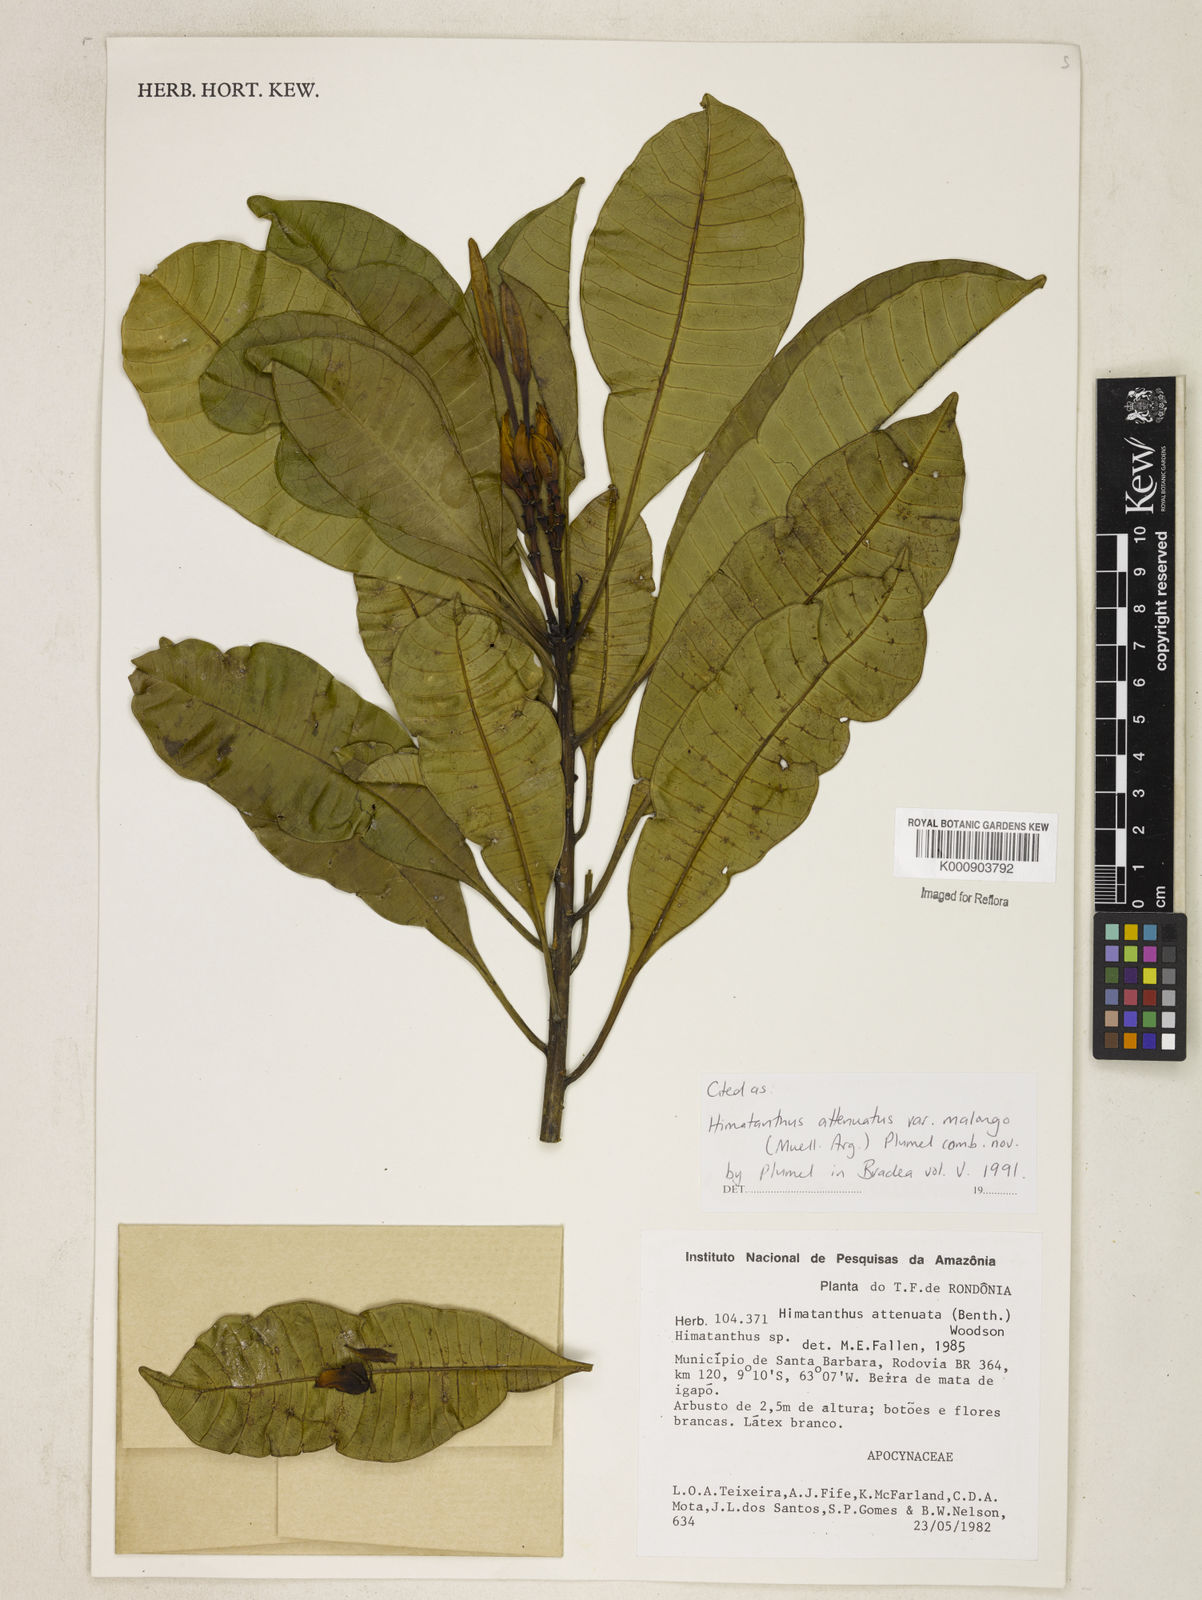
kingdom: Plantae
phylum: Tracheophyta
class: Magnoliopsida
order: Gentianales
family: Apocynaceae
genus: Himatanthus
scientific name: Himatanthus
